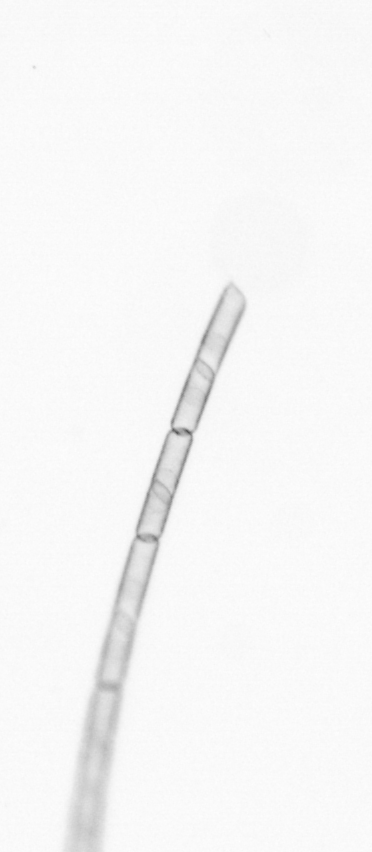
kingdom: Chromista
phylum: Ochrophyta
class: Bacillariophyceae
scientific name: Bacillariophyceae
